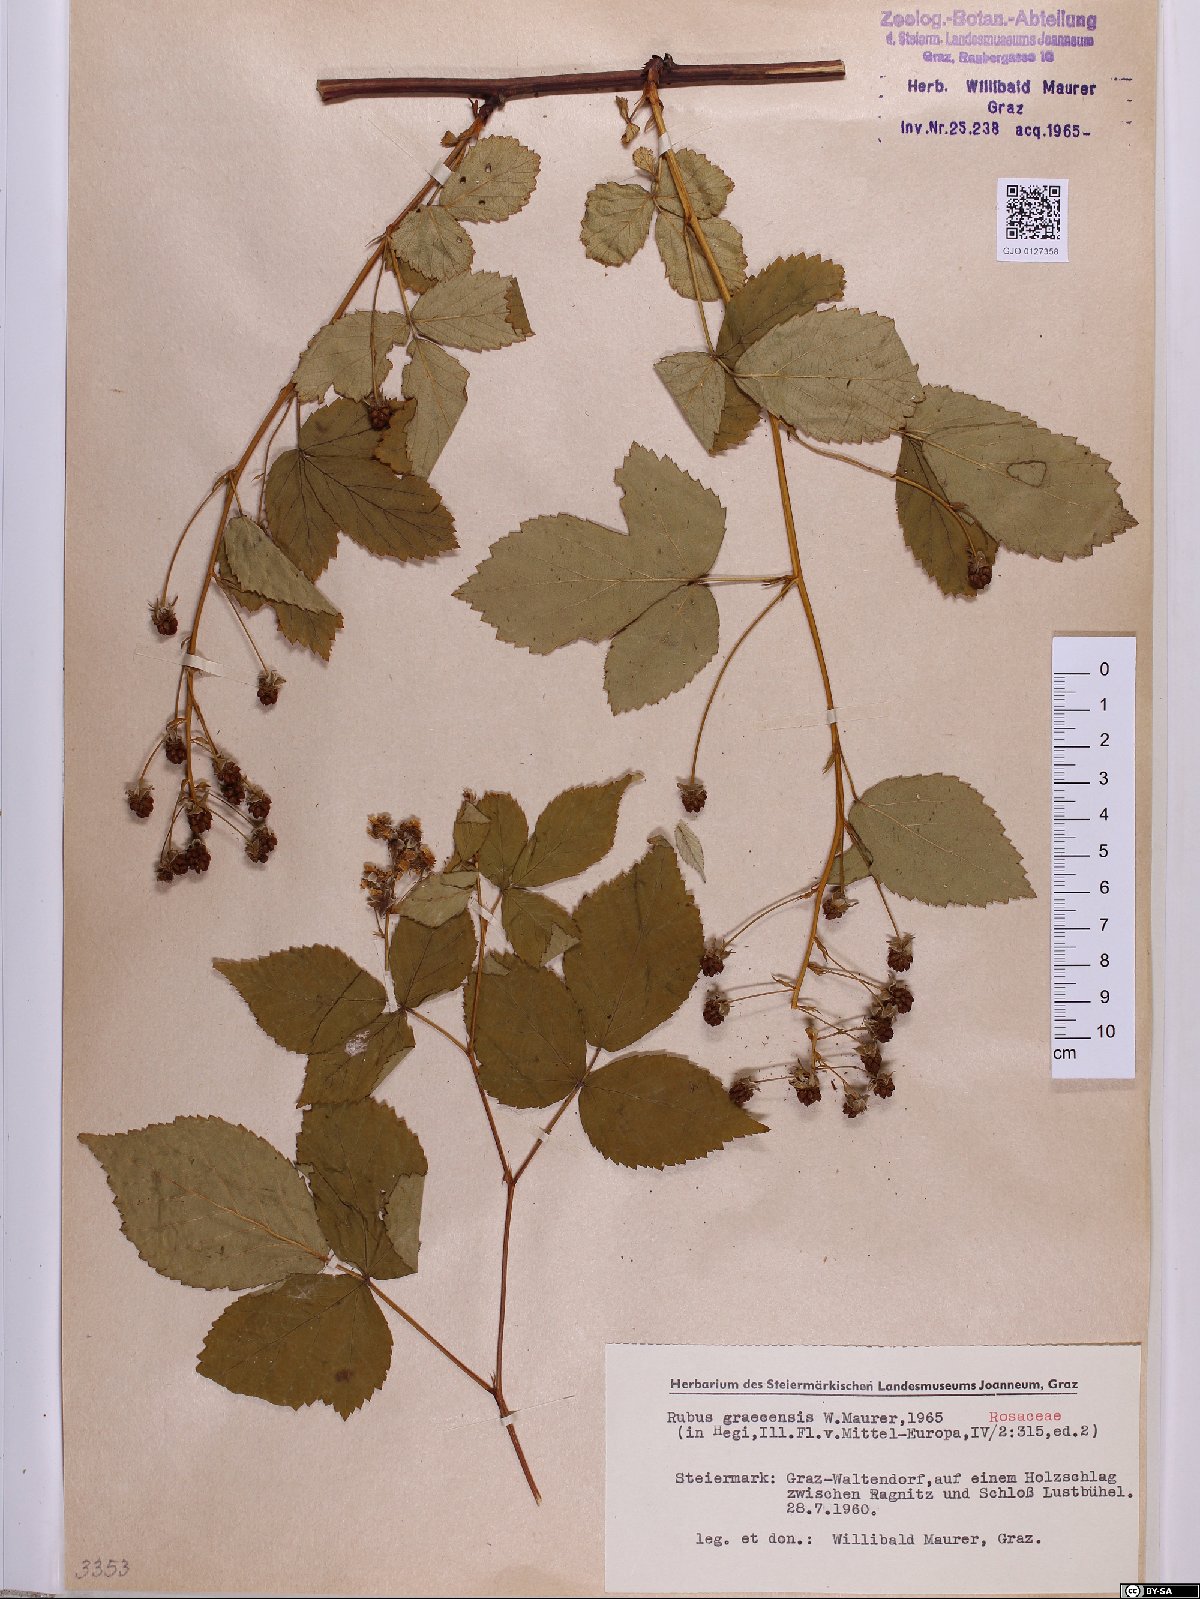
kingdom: Plantae
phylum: Tracheophyta
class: Magnoliopsida
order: Rosales
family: Rosaceae
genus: Rubus
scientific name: Rubus graecensis
